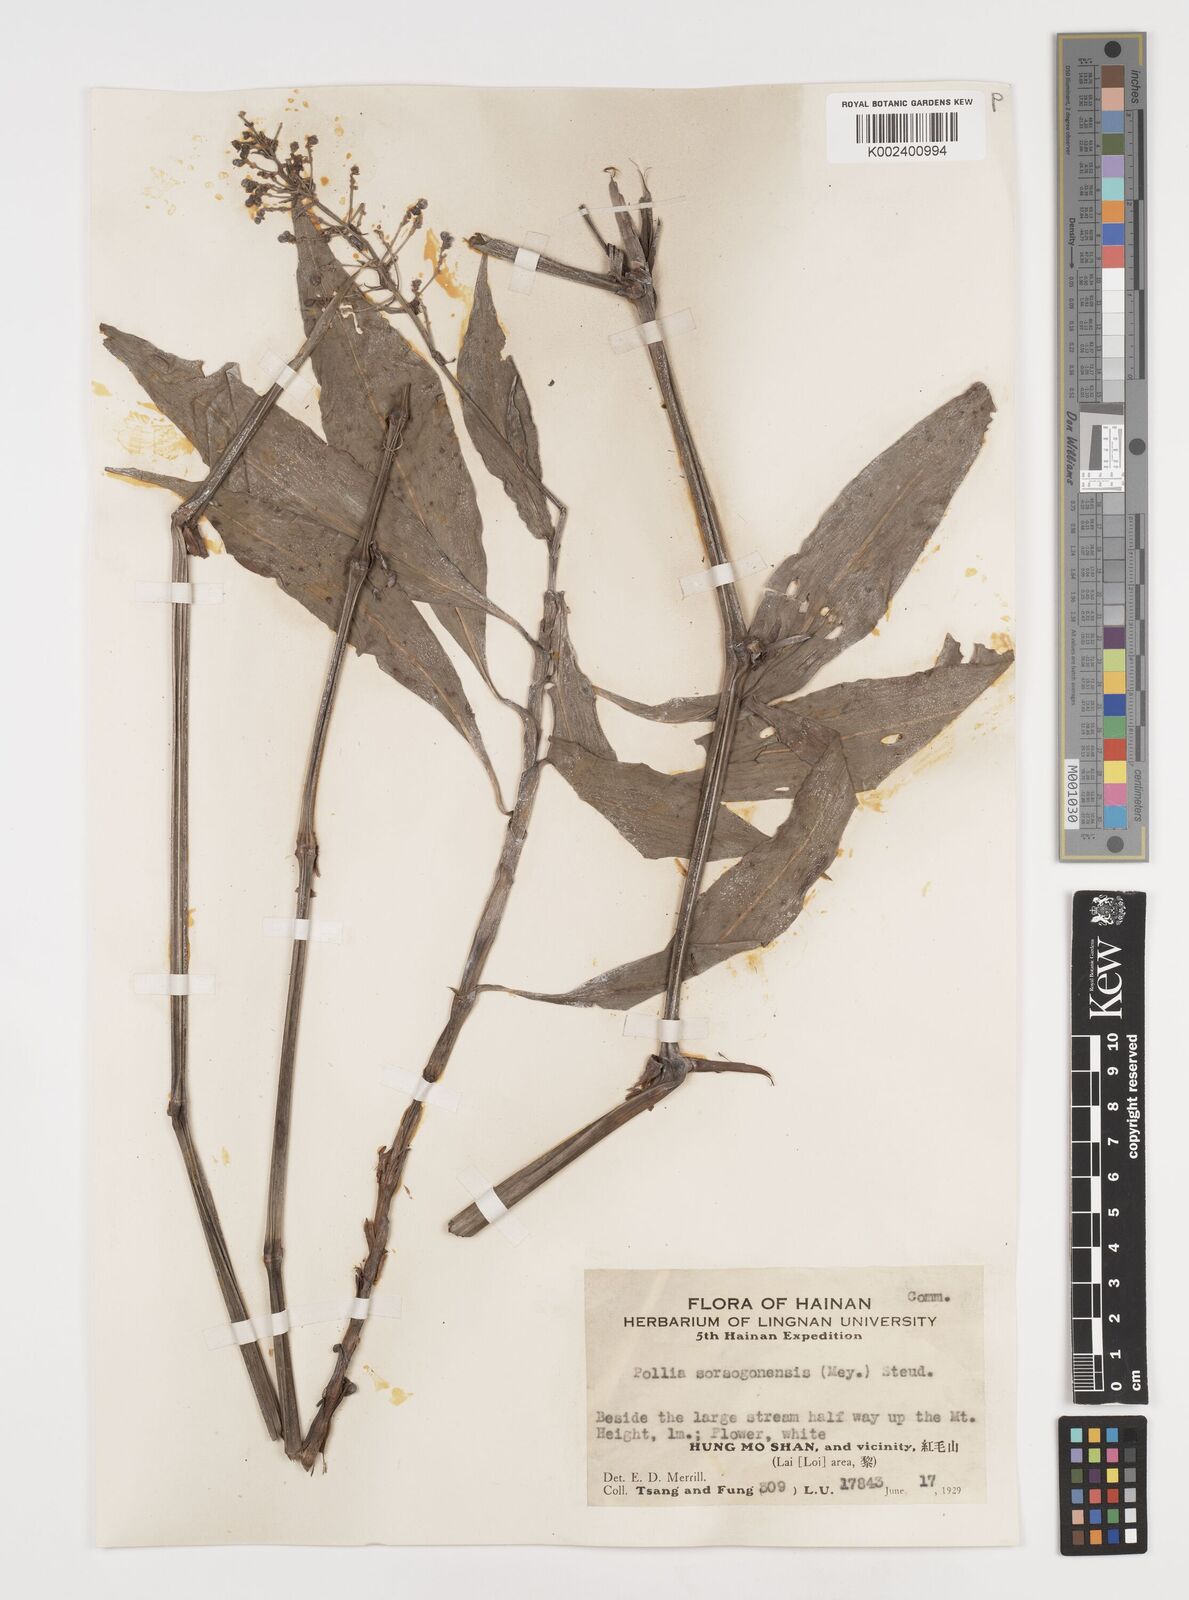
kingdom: Plantae
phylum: Tracheophyta
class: Liliopsida
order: Commelinales
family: Commelinaceae
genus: Pollia
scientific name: Pollia secundiflora
